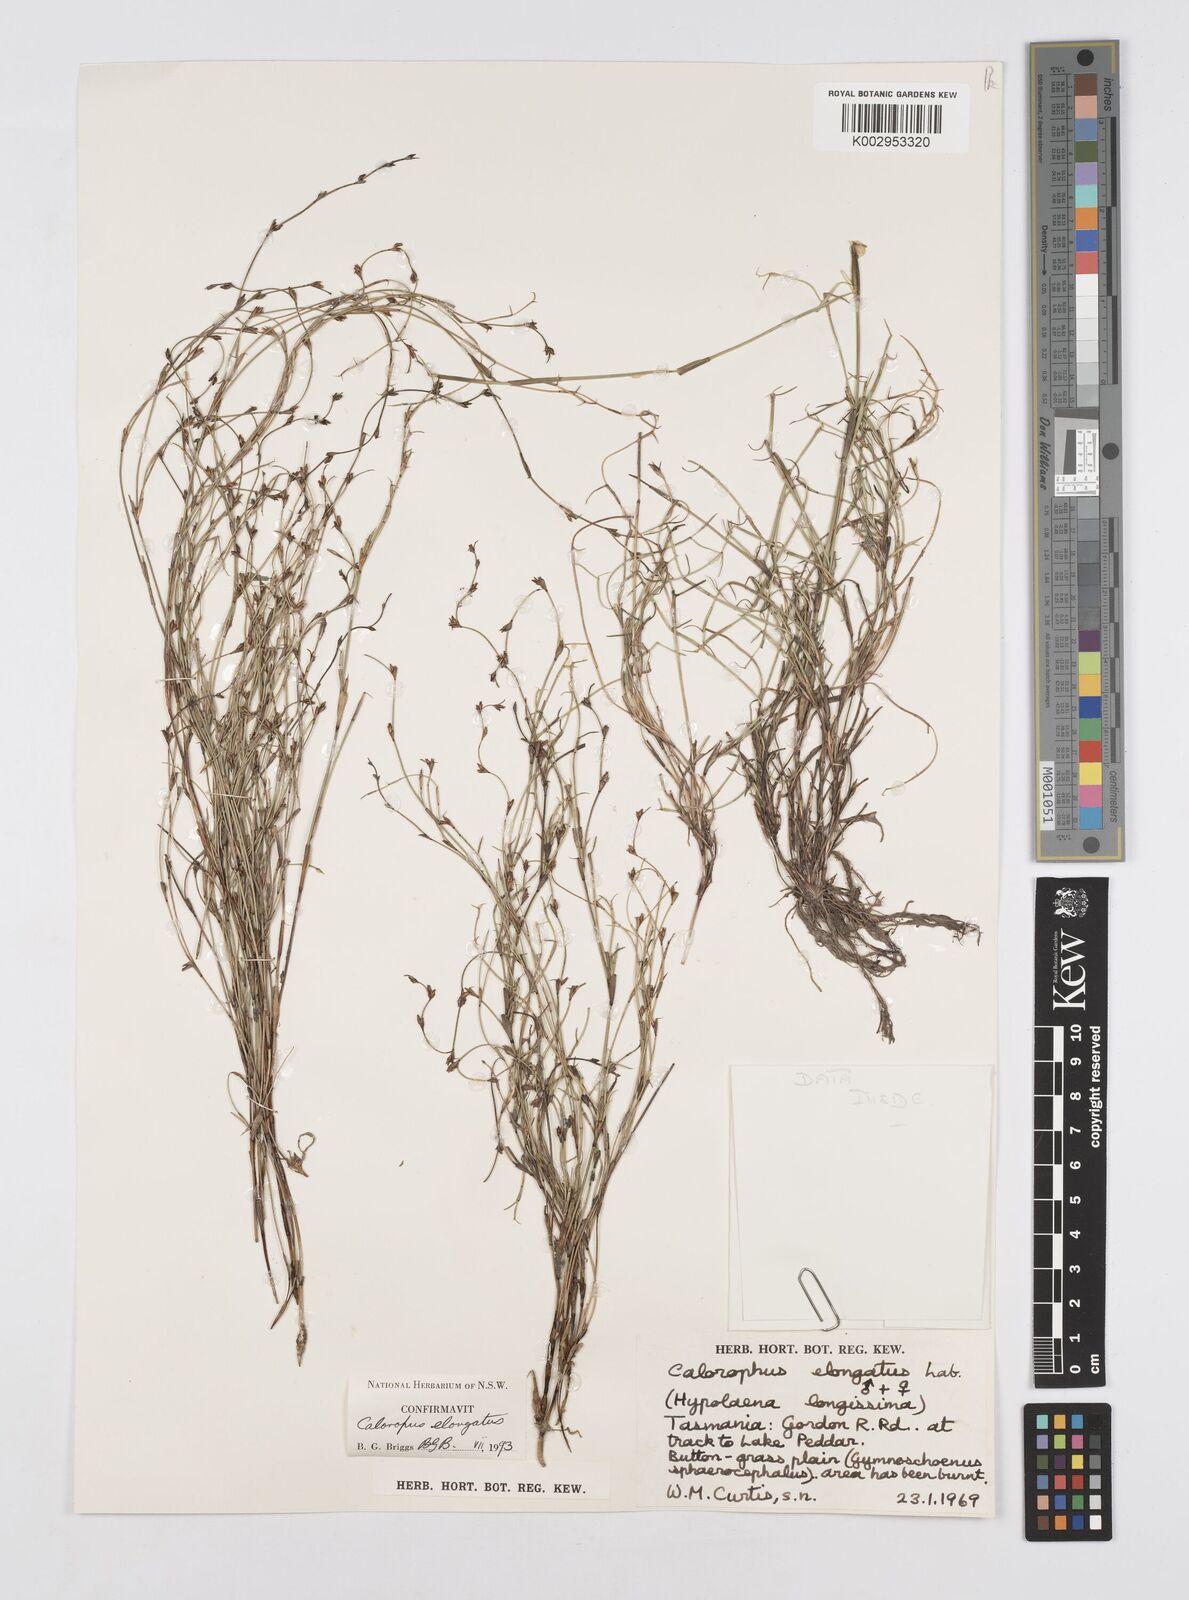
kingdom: Plantae
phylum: Tracheophyta
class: Liliopsida
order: Poales
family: Restionaceae
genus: Calorophus
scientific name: Calorophus elongatus
